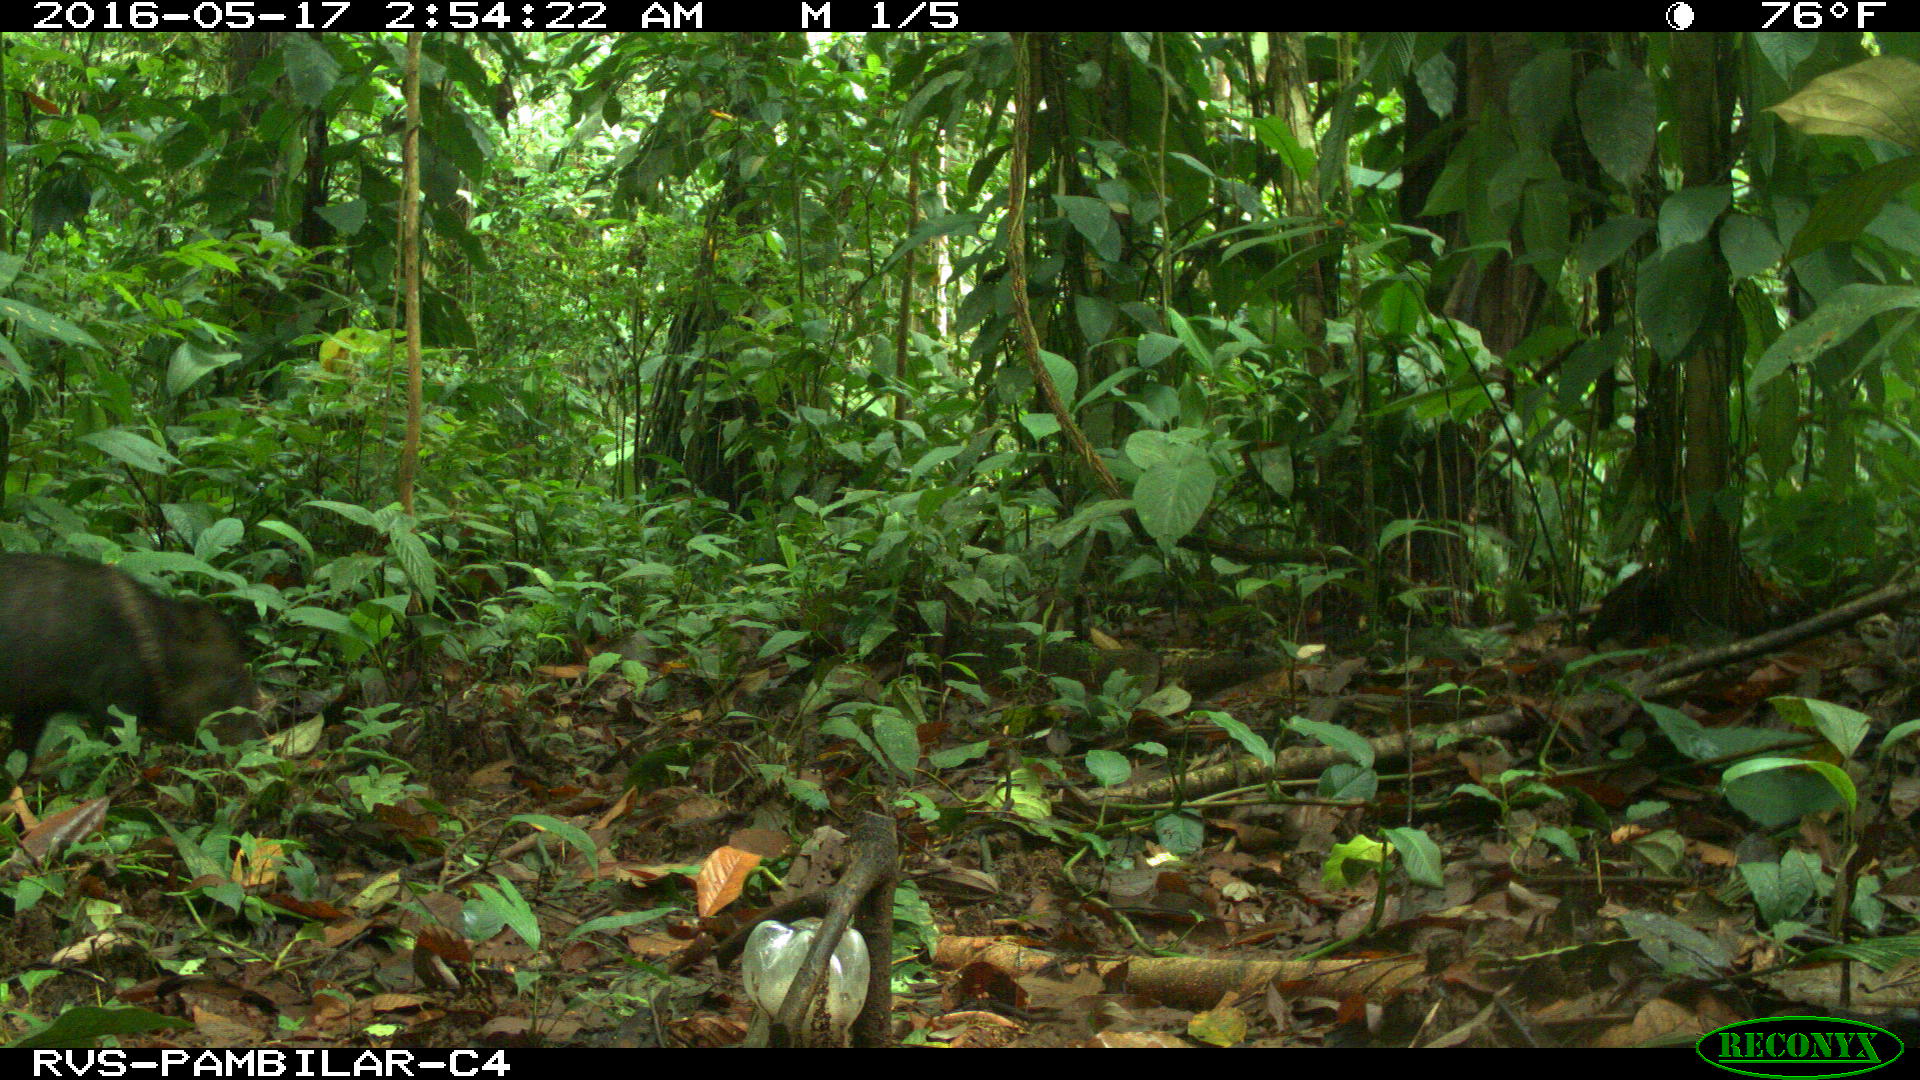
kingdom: Animalia
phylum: Chordata
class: Mammalia
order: Artiodactyla
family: Tayassuidae
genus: Tayassu
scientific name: Tayassu pecari
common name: White-lipped peccary
